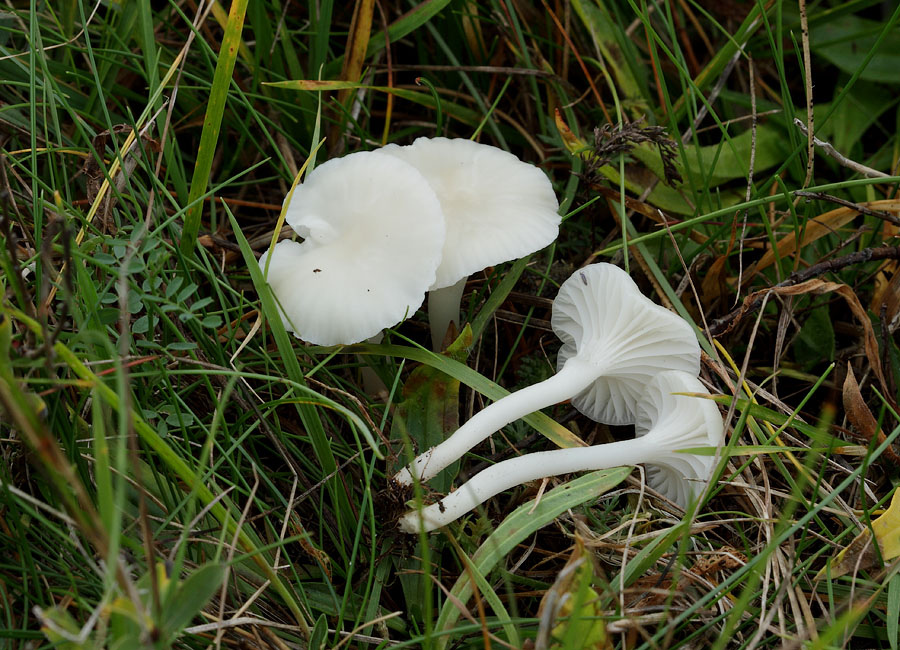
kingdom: Fungi
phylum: Basidiomycota
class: Agaricomycetes
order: Agaricales
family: Hygrophoraceae
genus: Cuphophyllus
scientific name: Cuphophyllus virgineus
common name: snehvid vokshat
